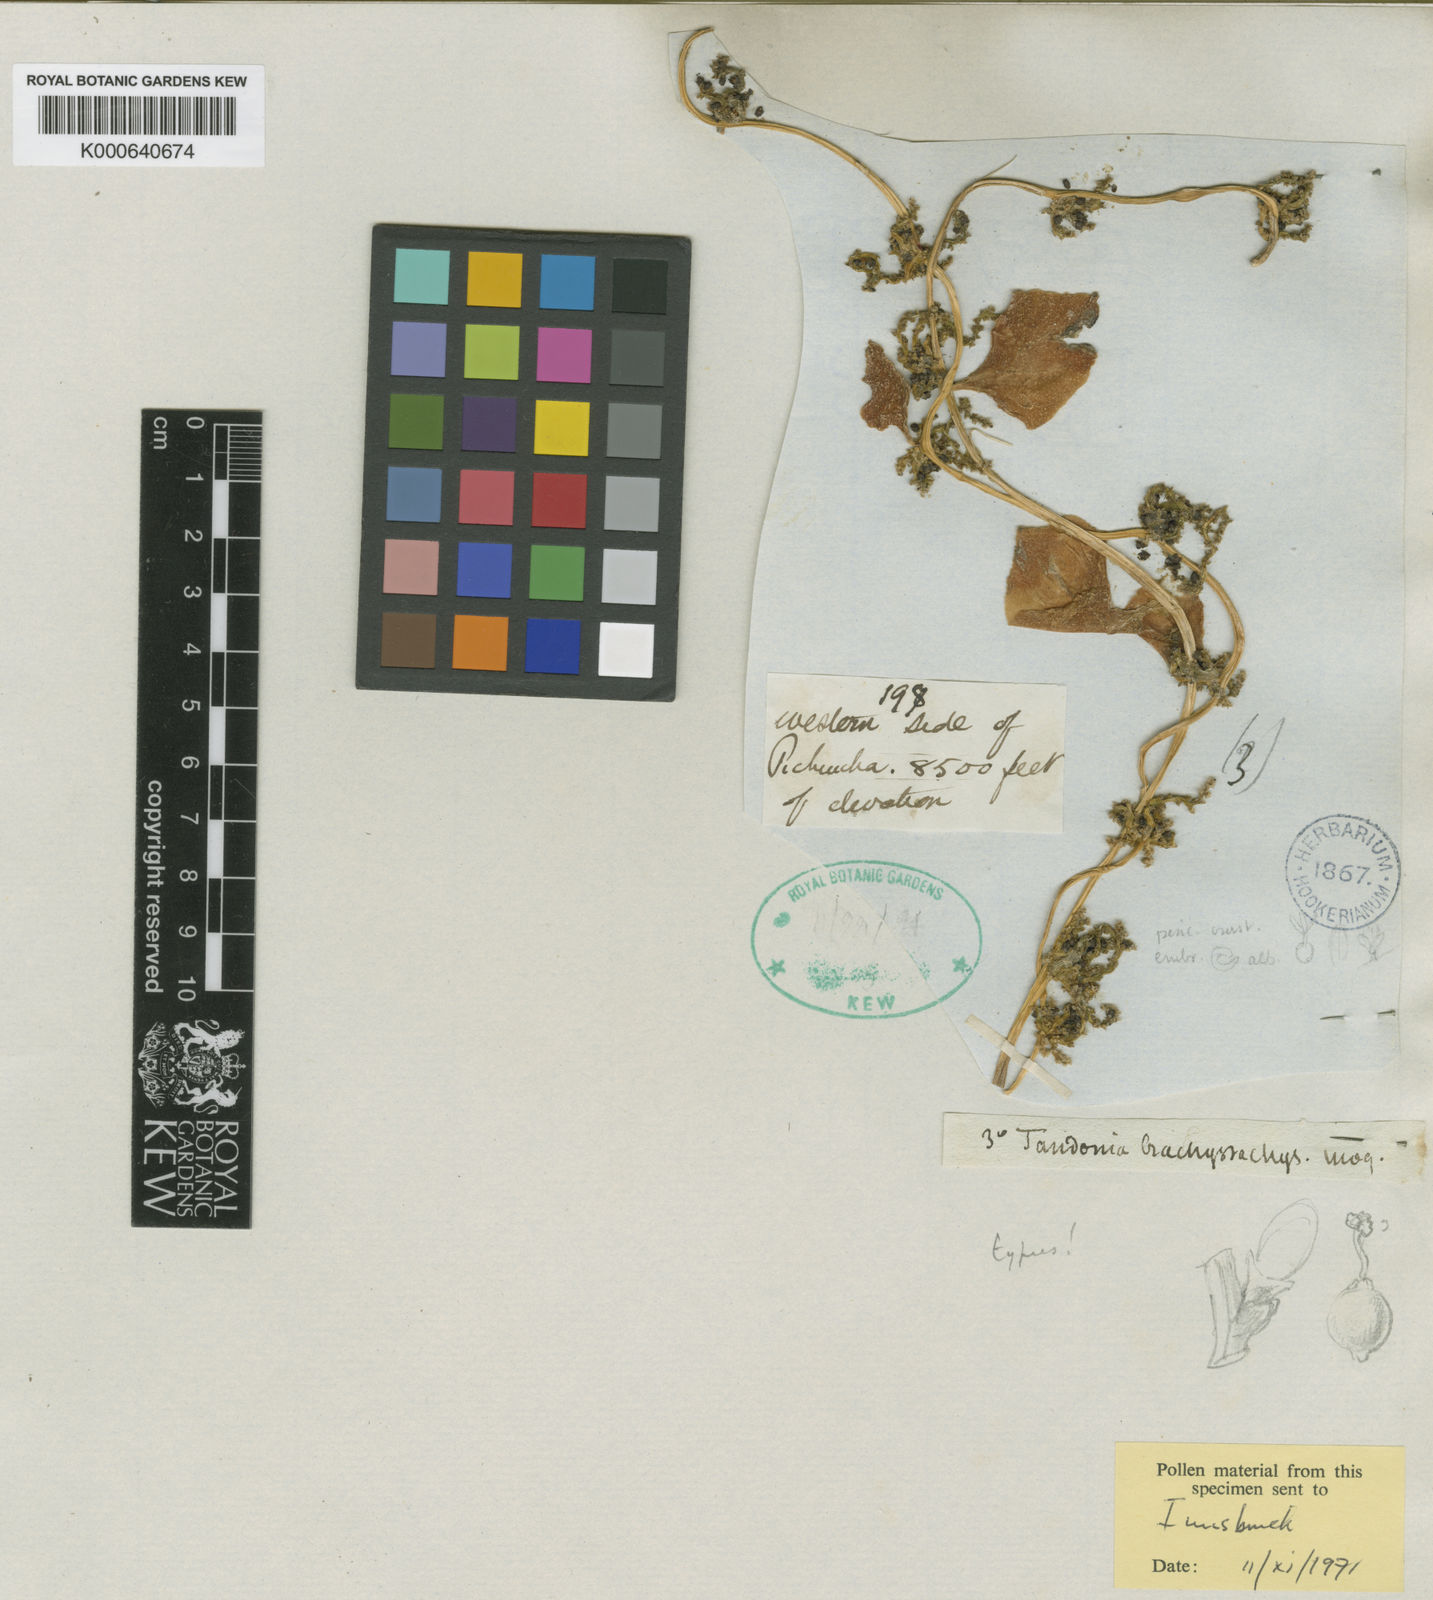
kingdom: Plantae
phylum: Tracheophyta
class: Magnoliopsida
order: Caryophyllales
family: Basellaceae
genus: Anredera
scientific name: Anredera brachystachys
